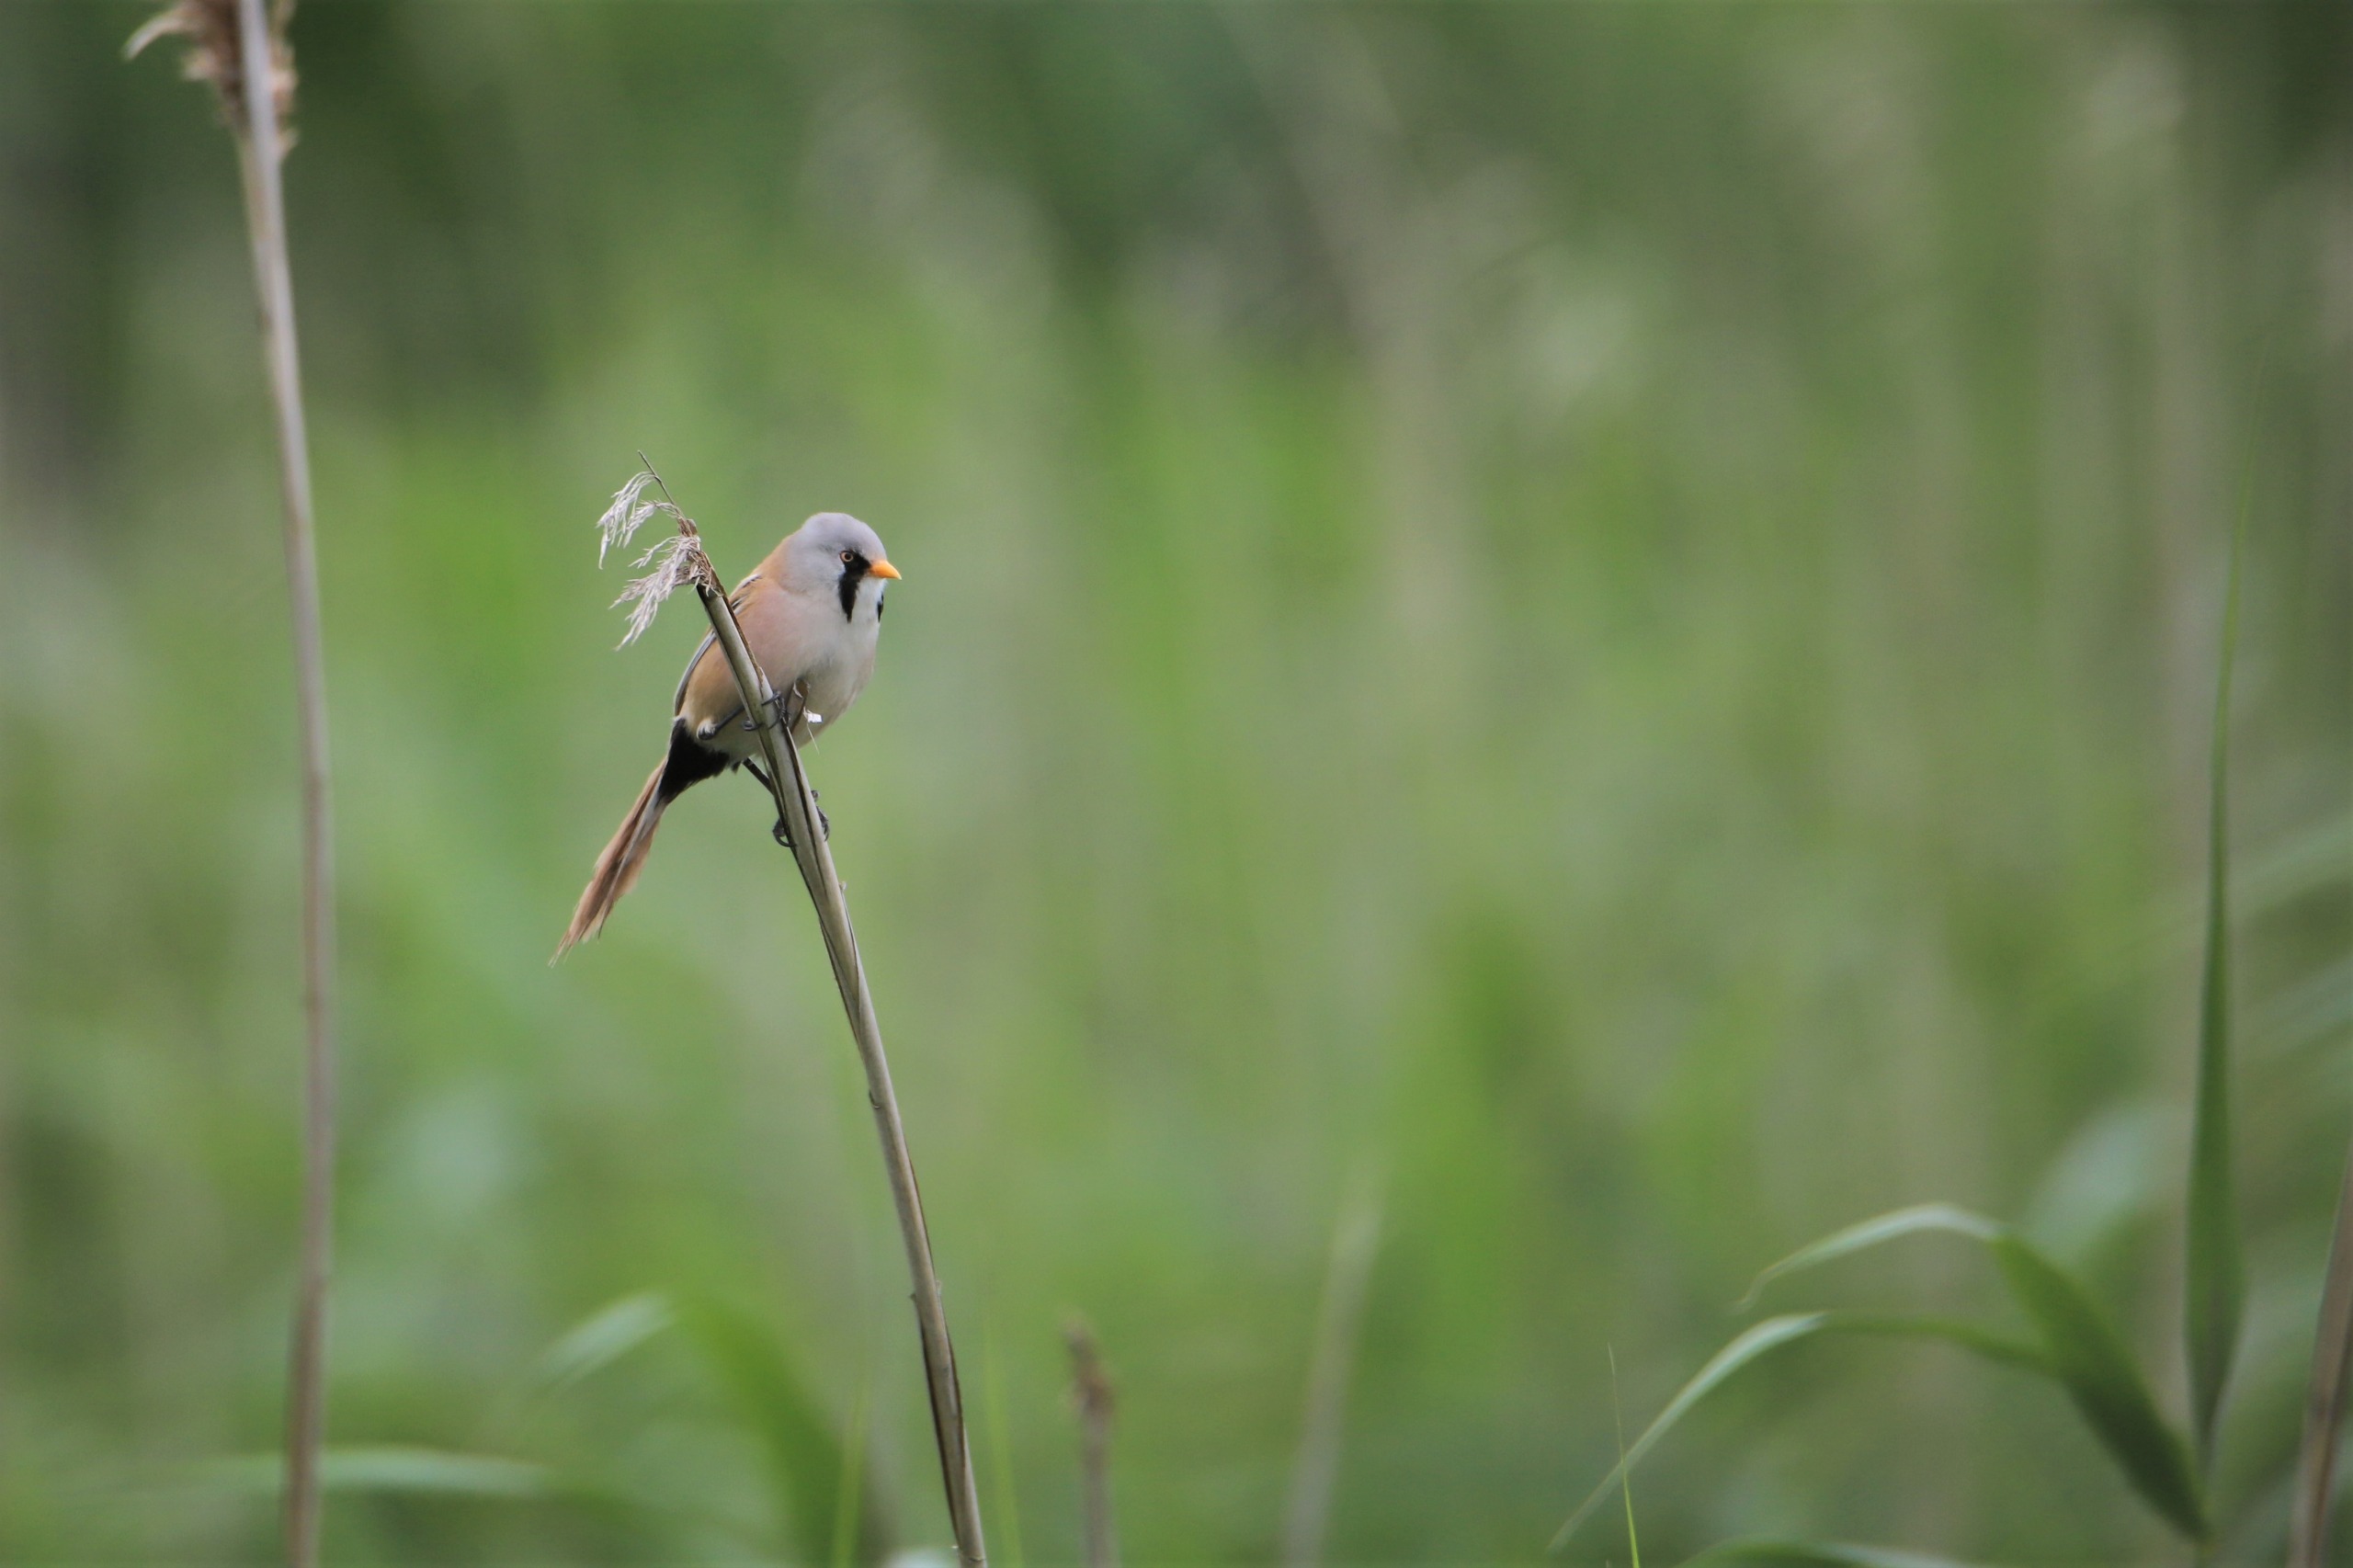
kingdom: Animalia
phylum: Chordata
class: Aves
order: Passeriformes
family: Panuridae
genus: Panurus
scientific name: Panurus biarmicus
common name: Skægmejse
